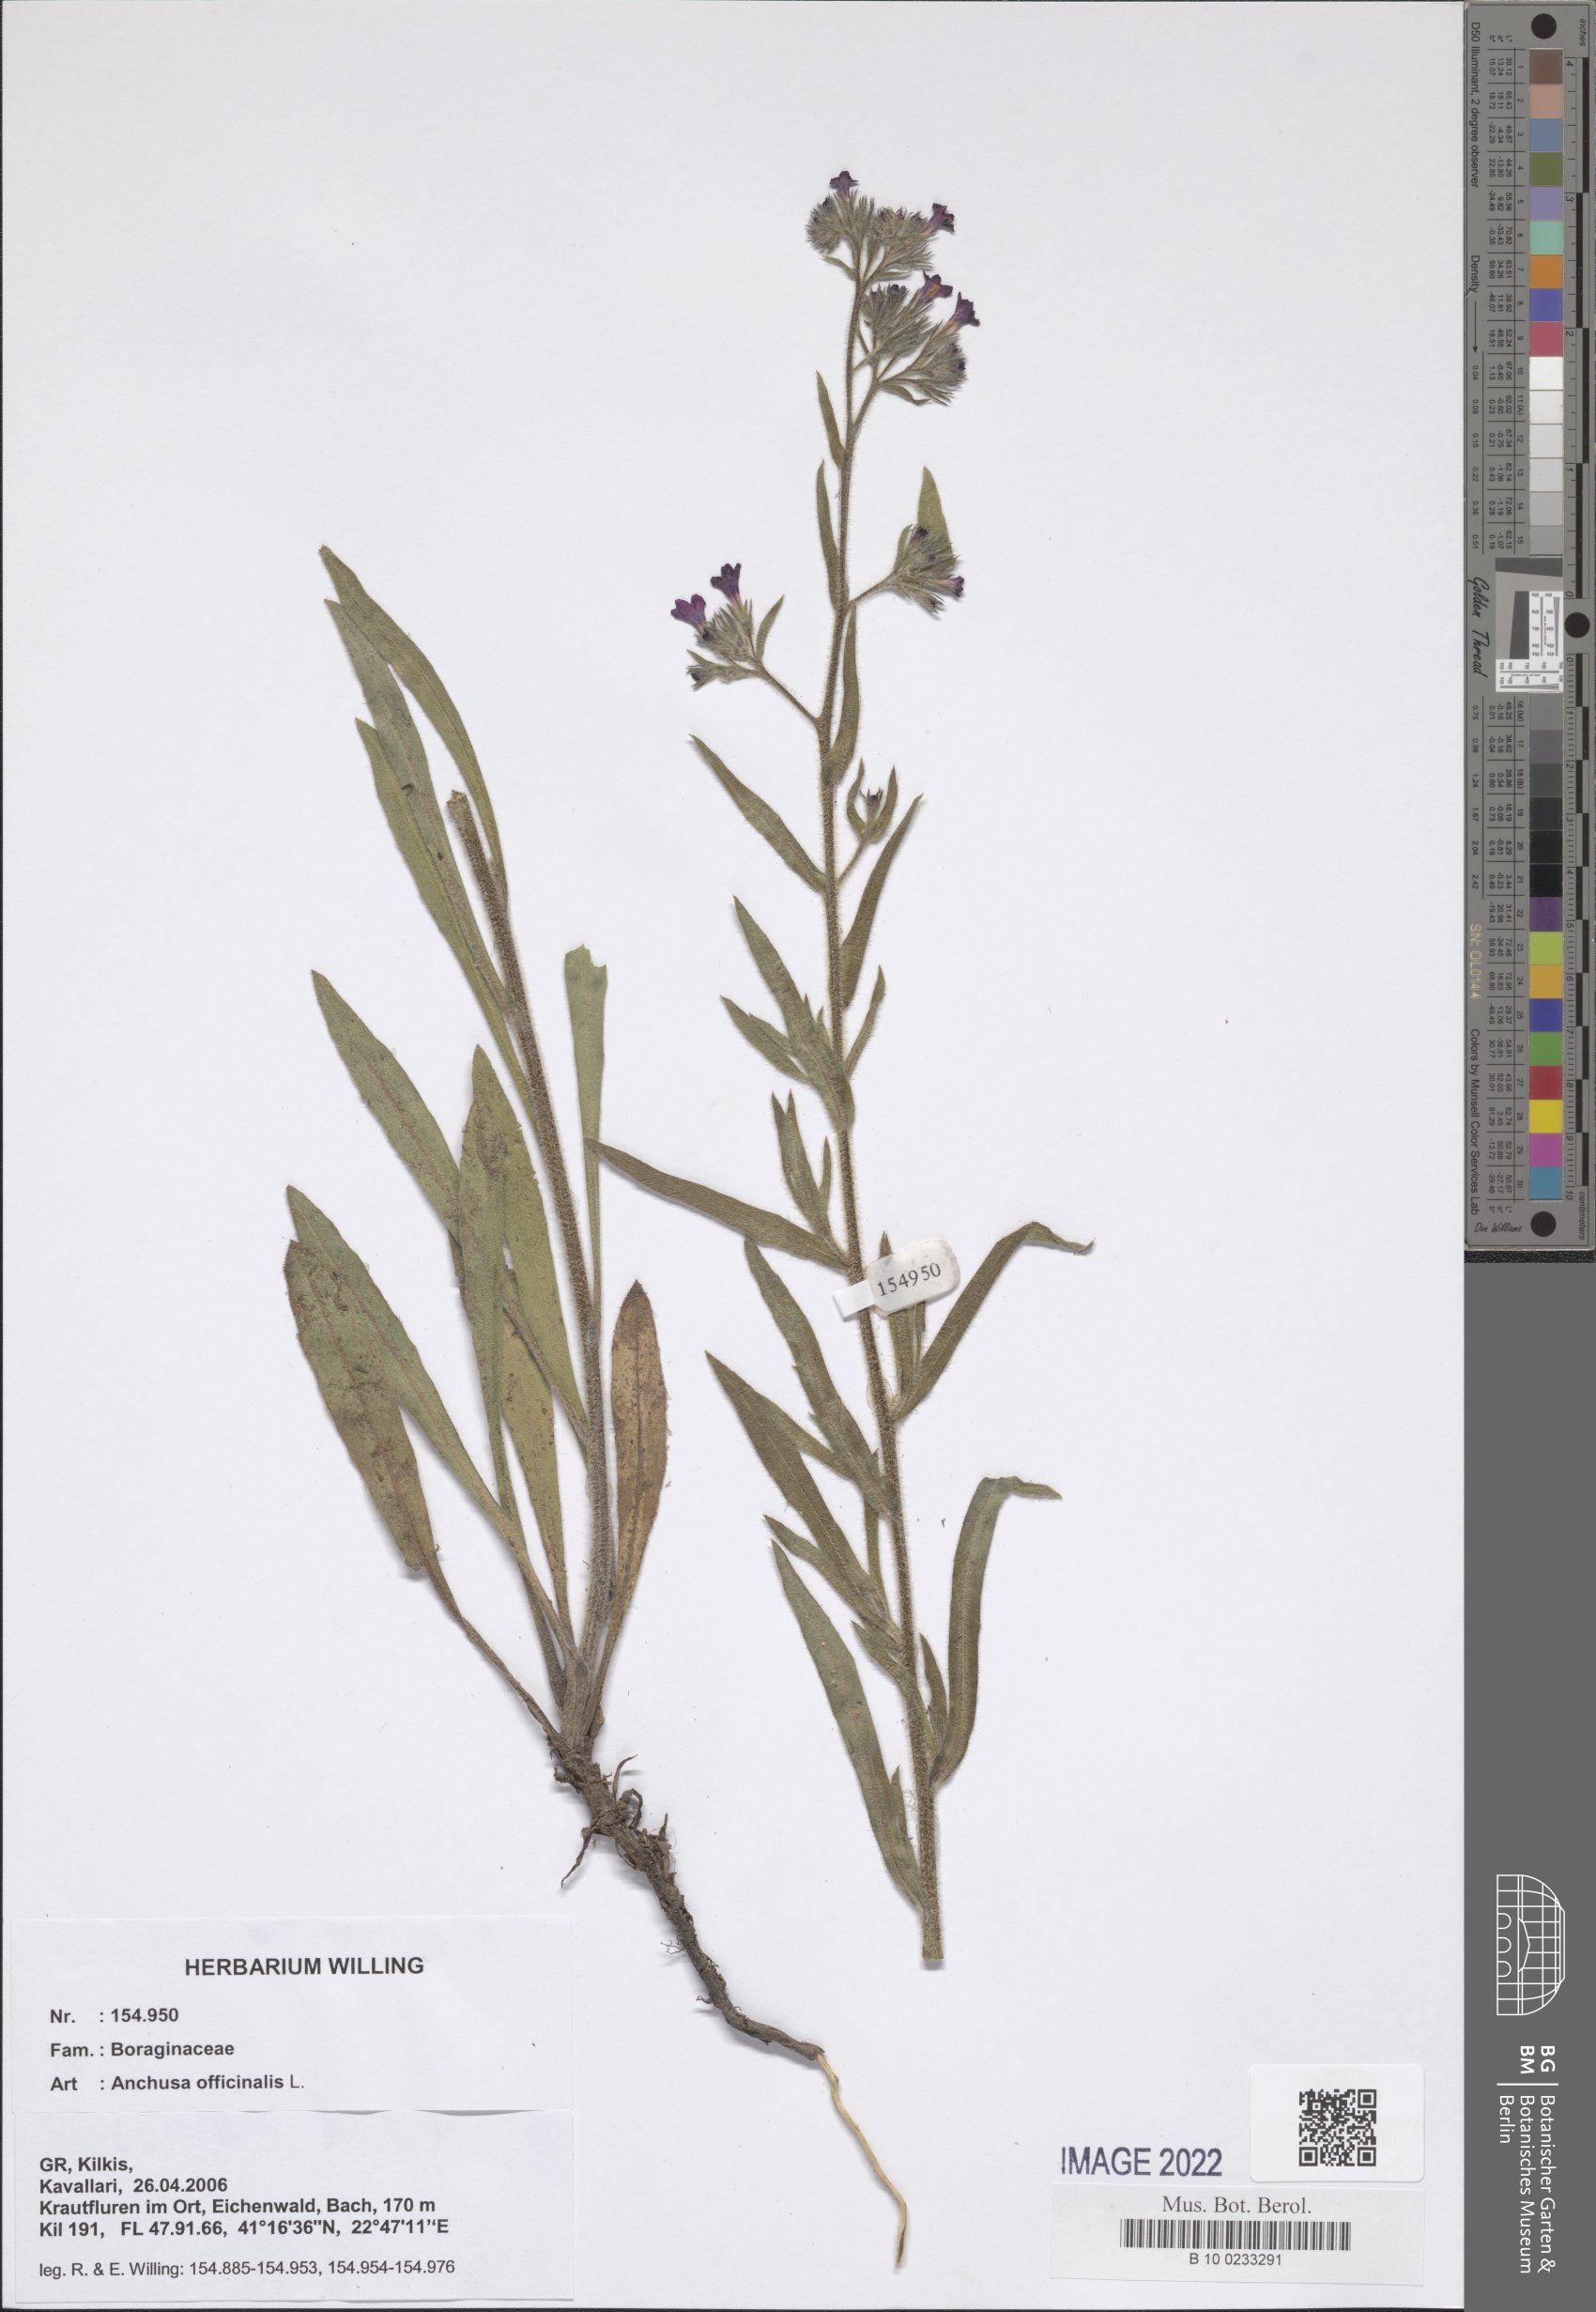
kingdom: Plantae
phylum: Tracheophyta
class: Magnoliopsida
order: Boraginales
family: Boraginaceae
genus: Anchusa
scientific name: Anchusa officinalis
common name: Alkanet
